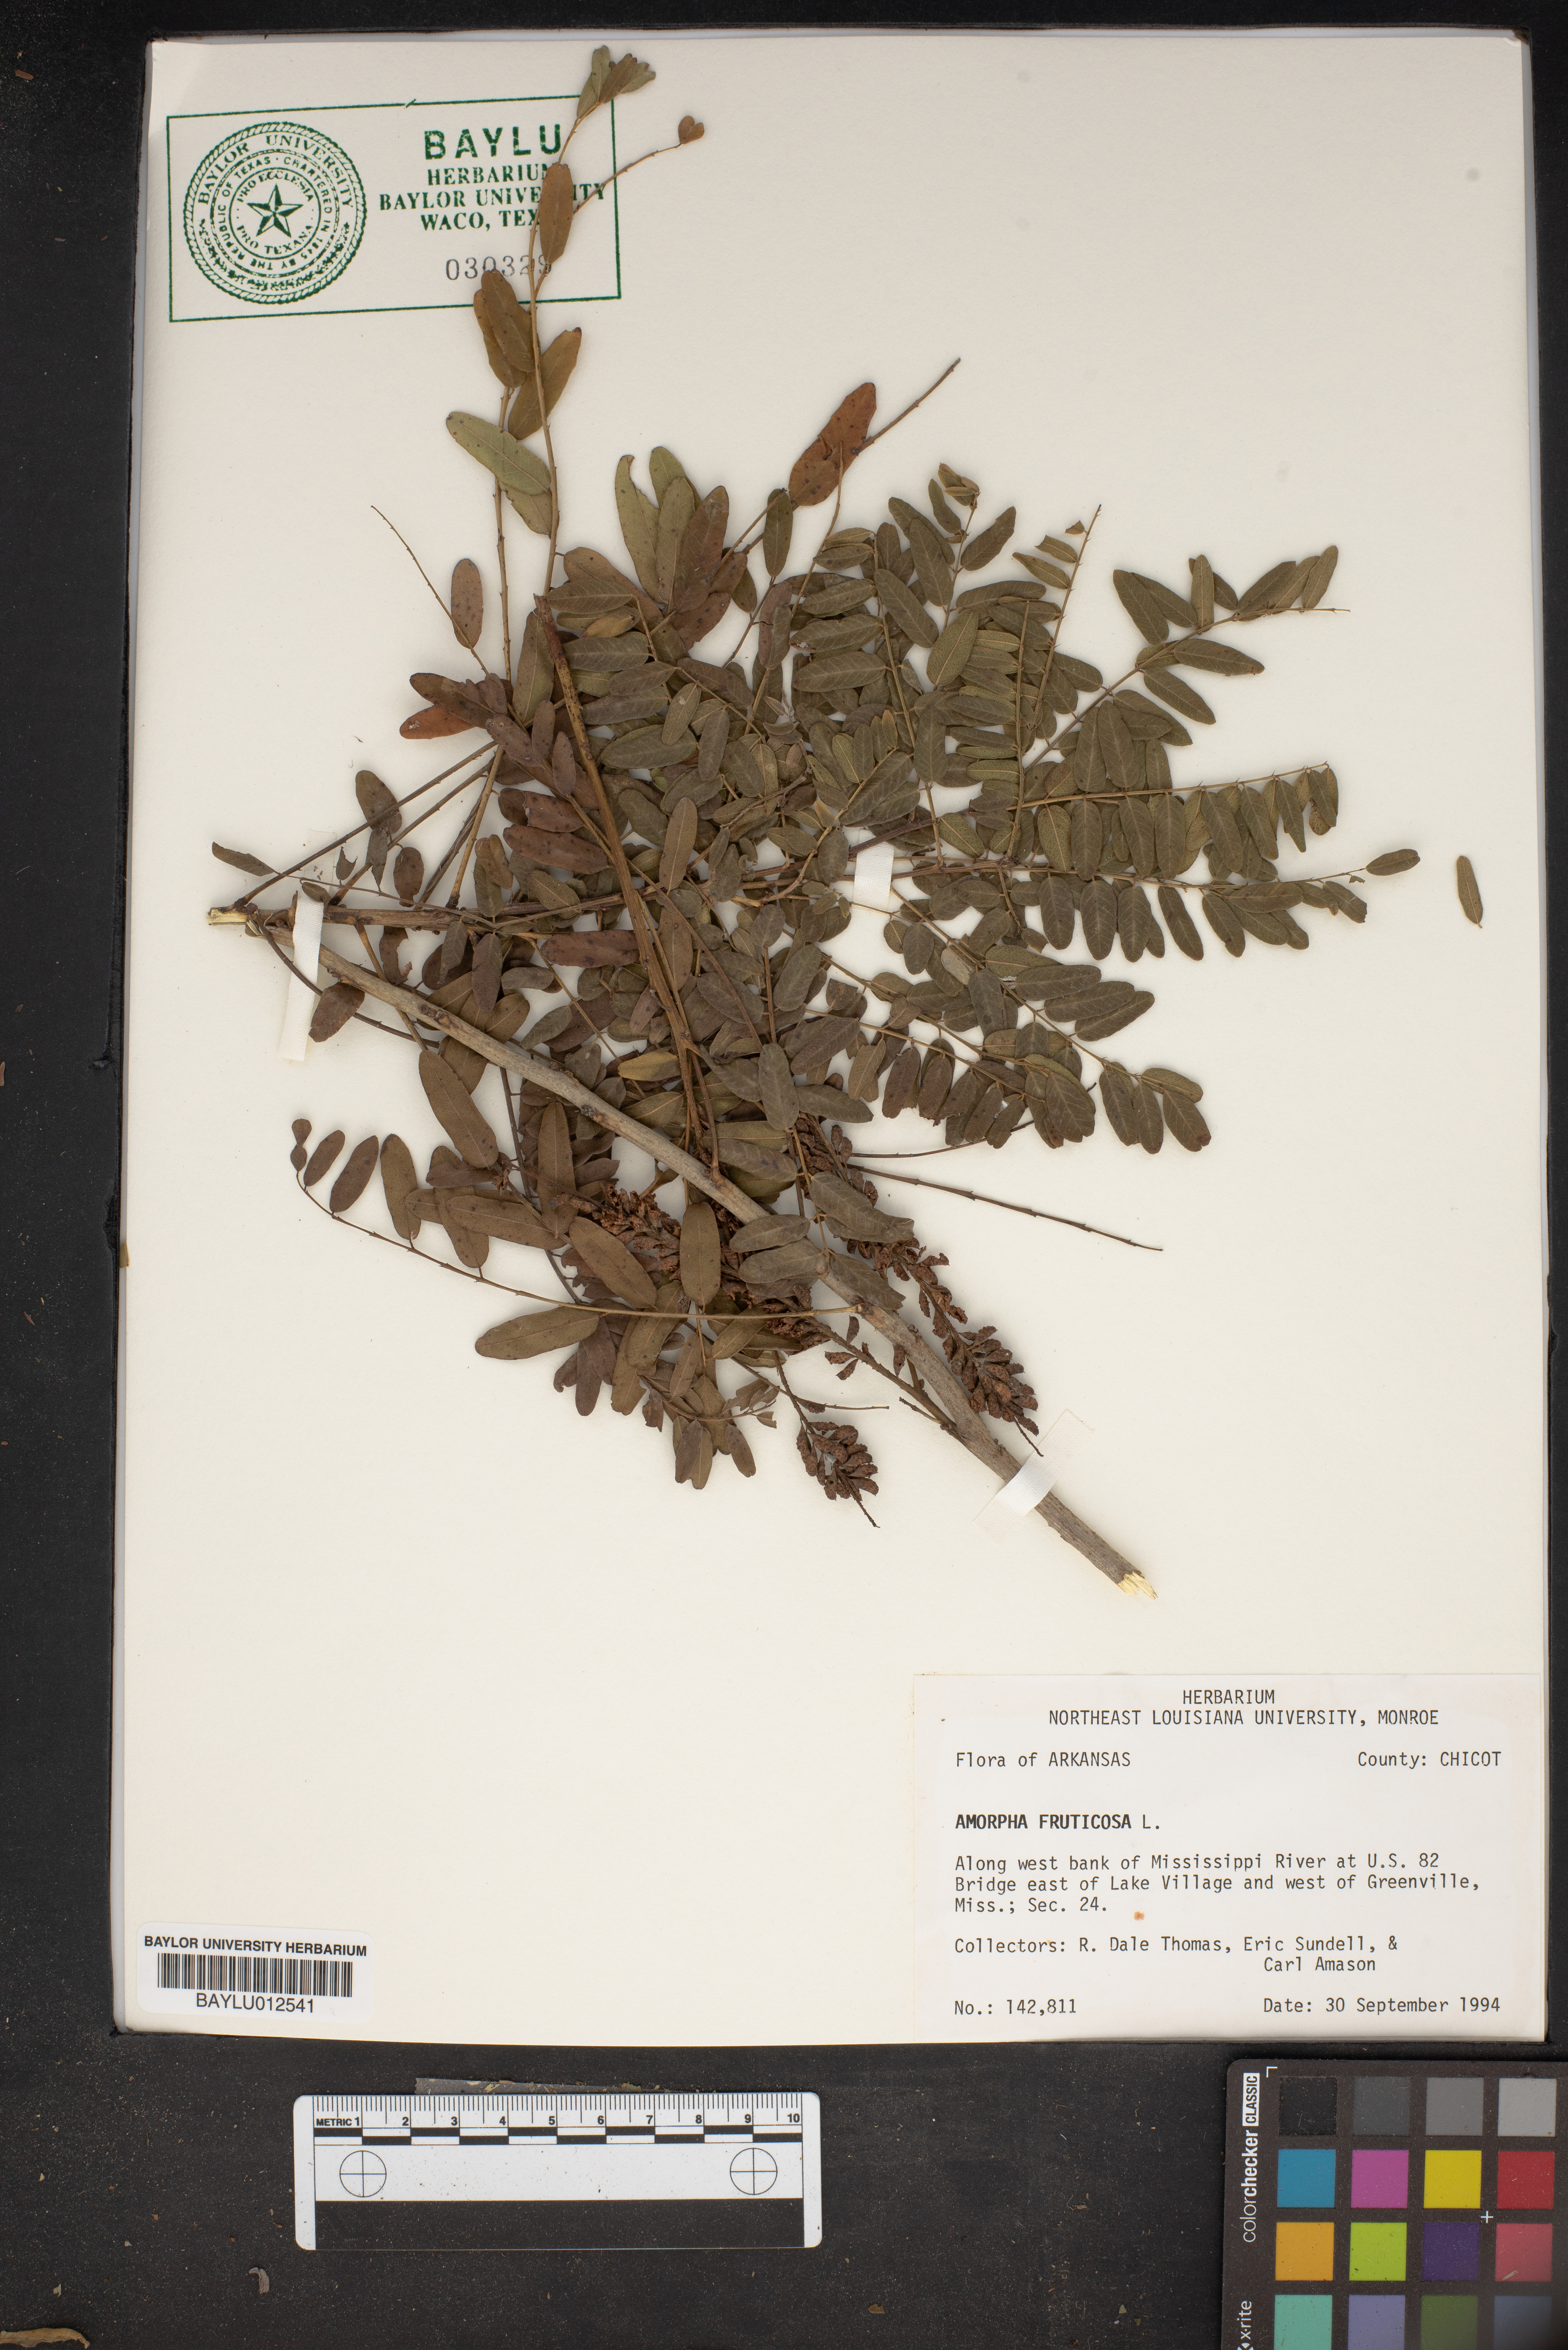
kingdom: Plantae
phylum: Tracheophyta
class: Magnoliopsida
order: Fabales
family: Fabaceae
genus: Amorpha
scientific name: Amorpha fruticosa
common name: False indigo
